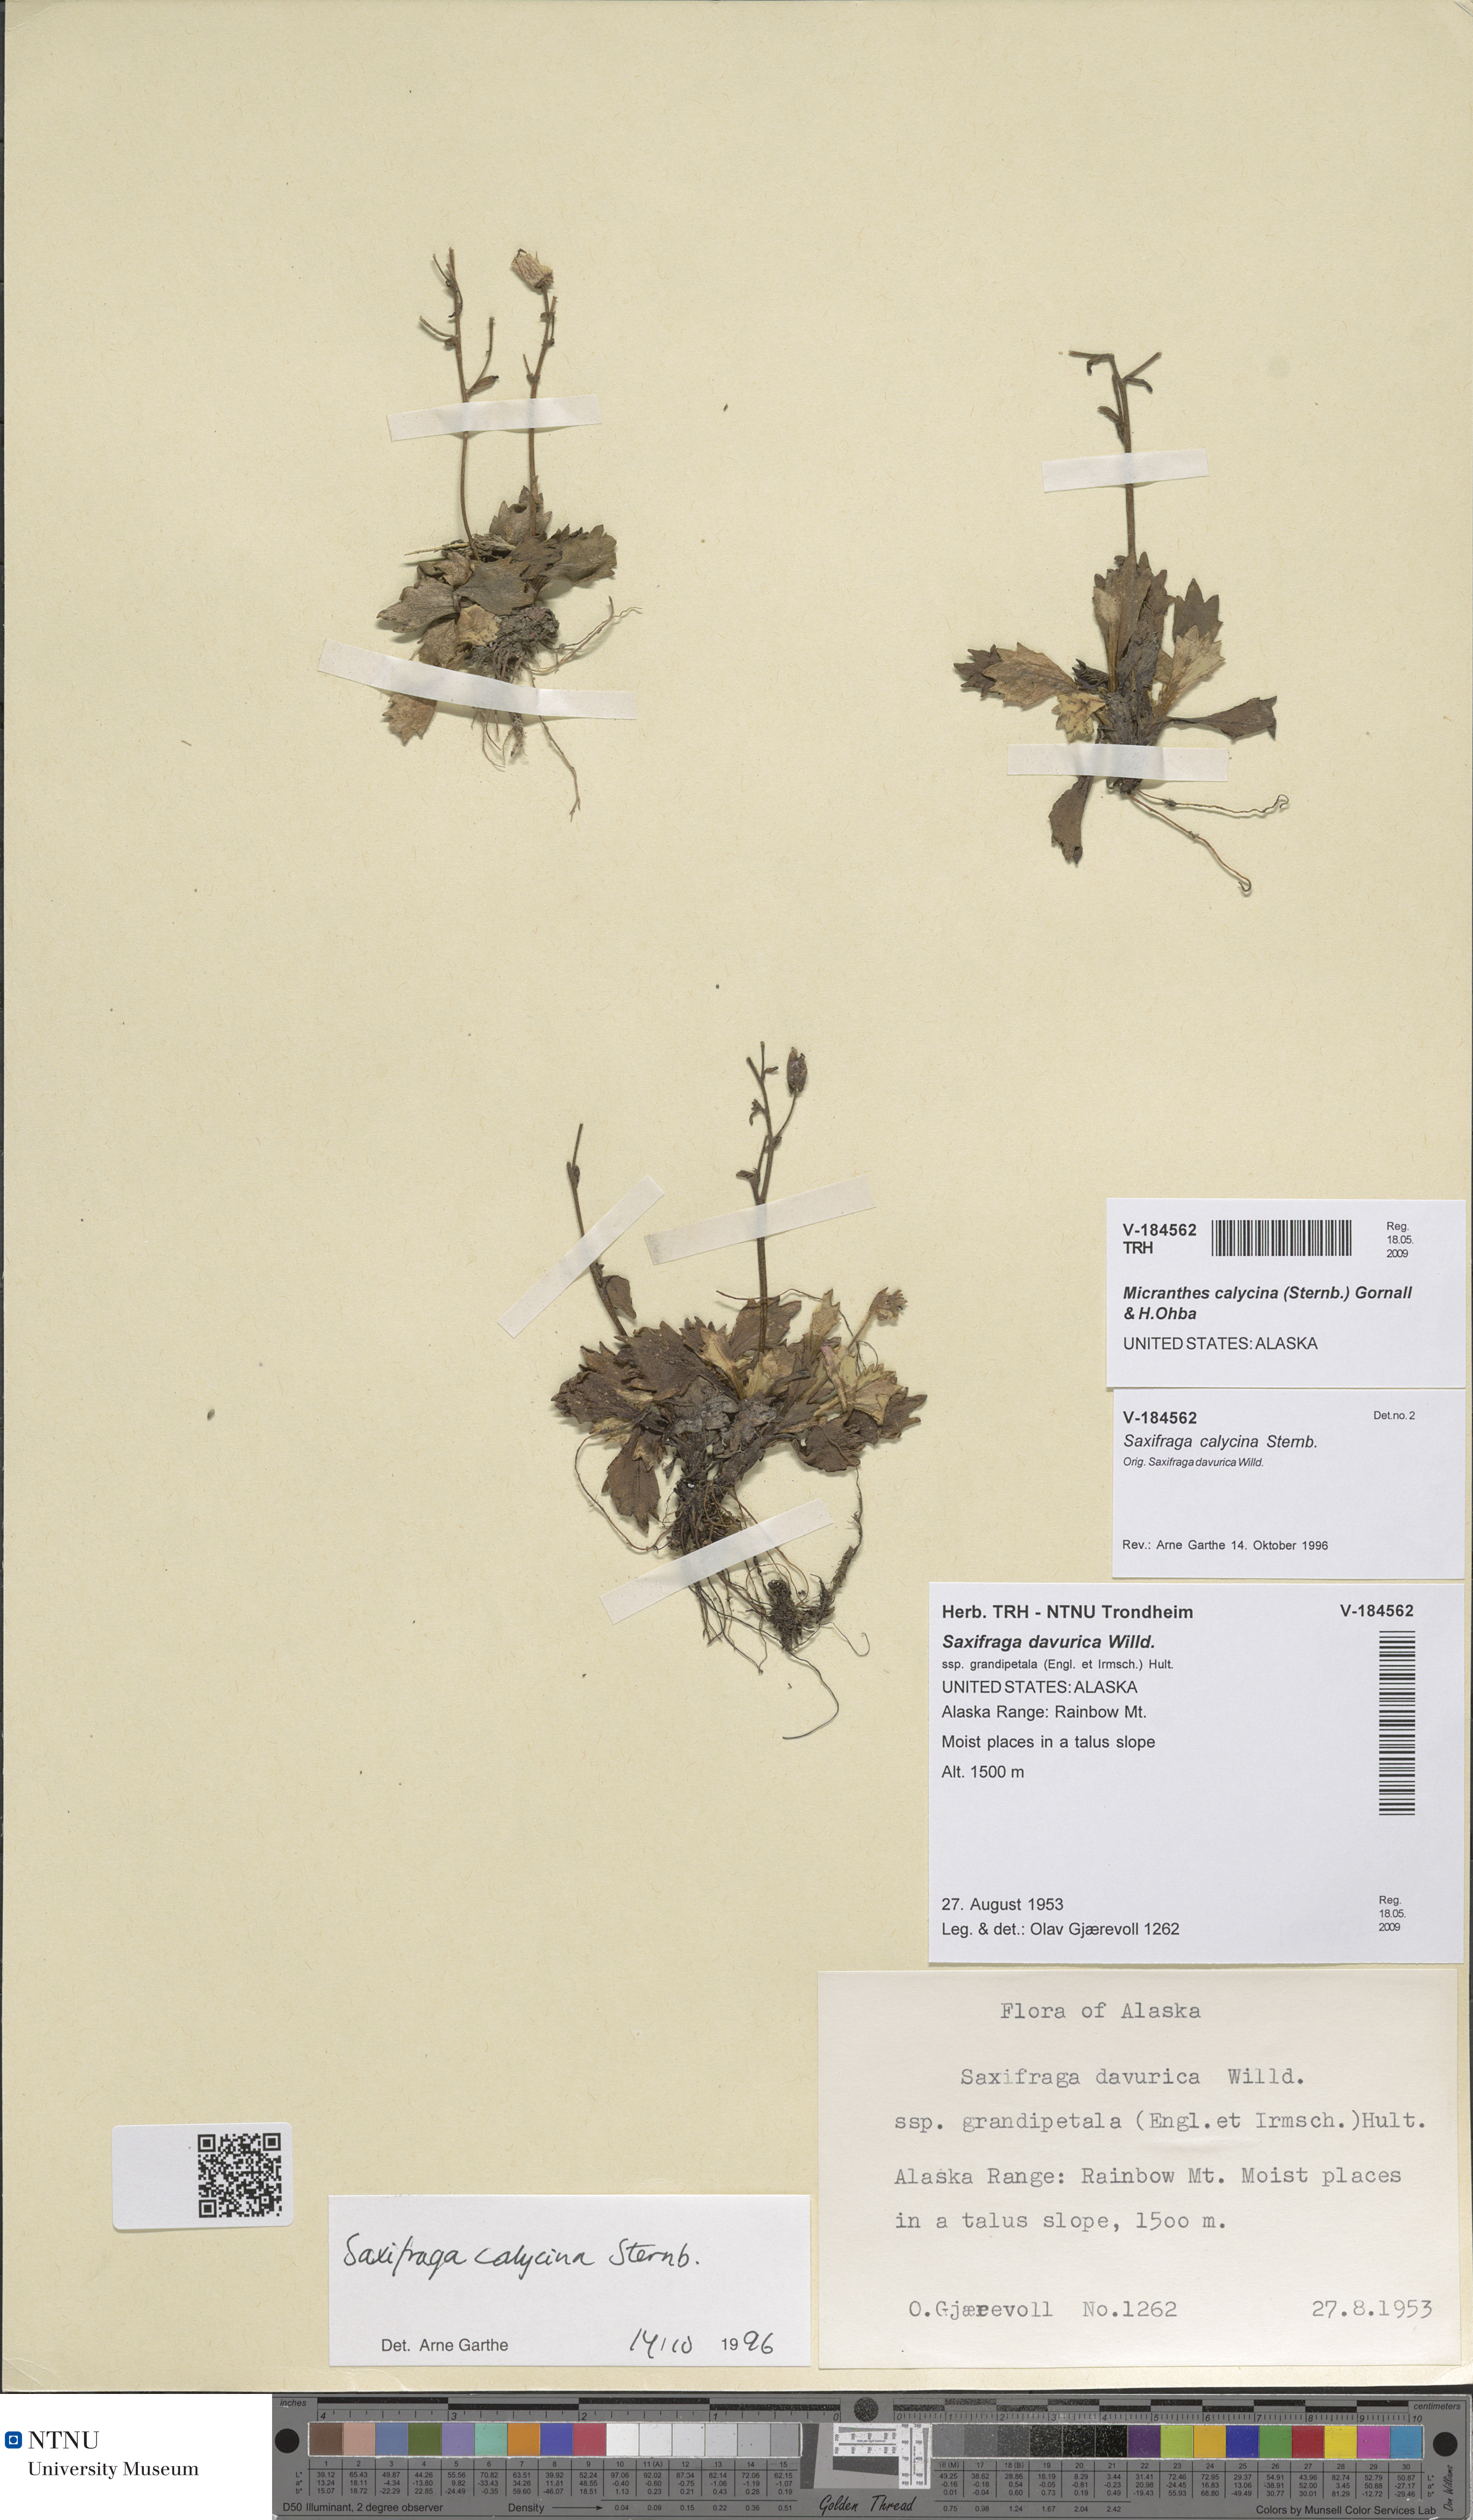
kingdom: Plantae
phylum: Tracheophyta
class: Magnoliopsida
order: Saxifragales
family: Saxifragaceae
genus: Micranthes
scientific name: Micranthes calycina
